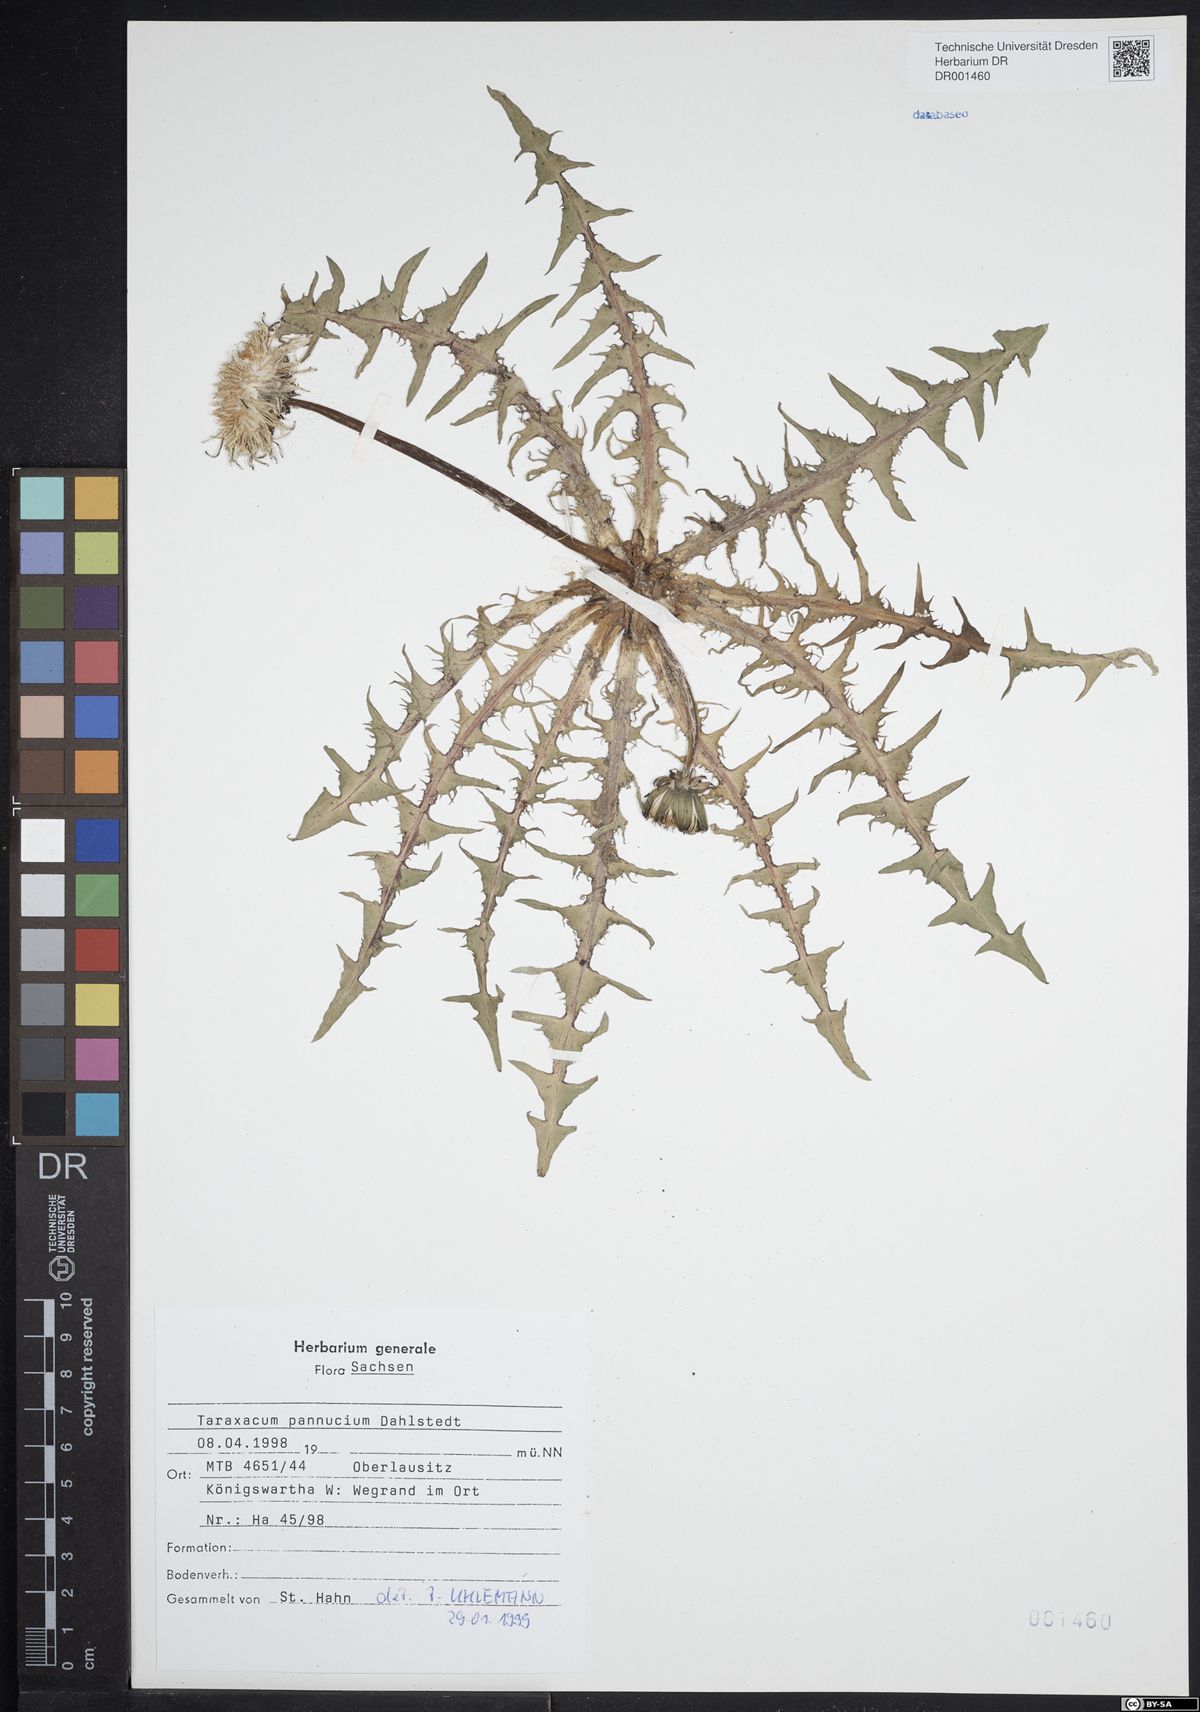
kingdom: Plantae
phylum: Tracheophyta
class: Magnoliopsida
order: Asterales
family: Asteraceae
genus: Taraxacum
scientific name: Taraxacum pannucium
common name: Green-stalked dandelion
